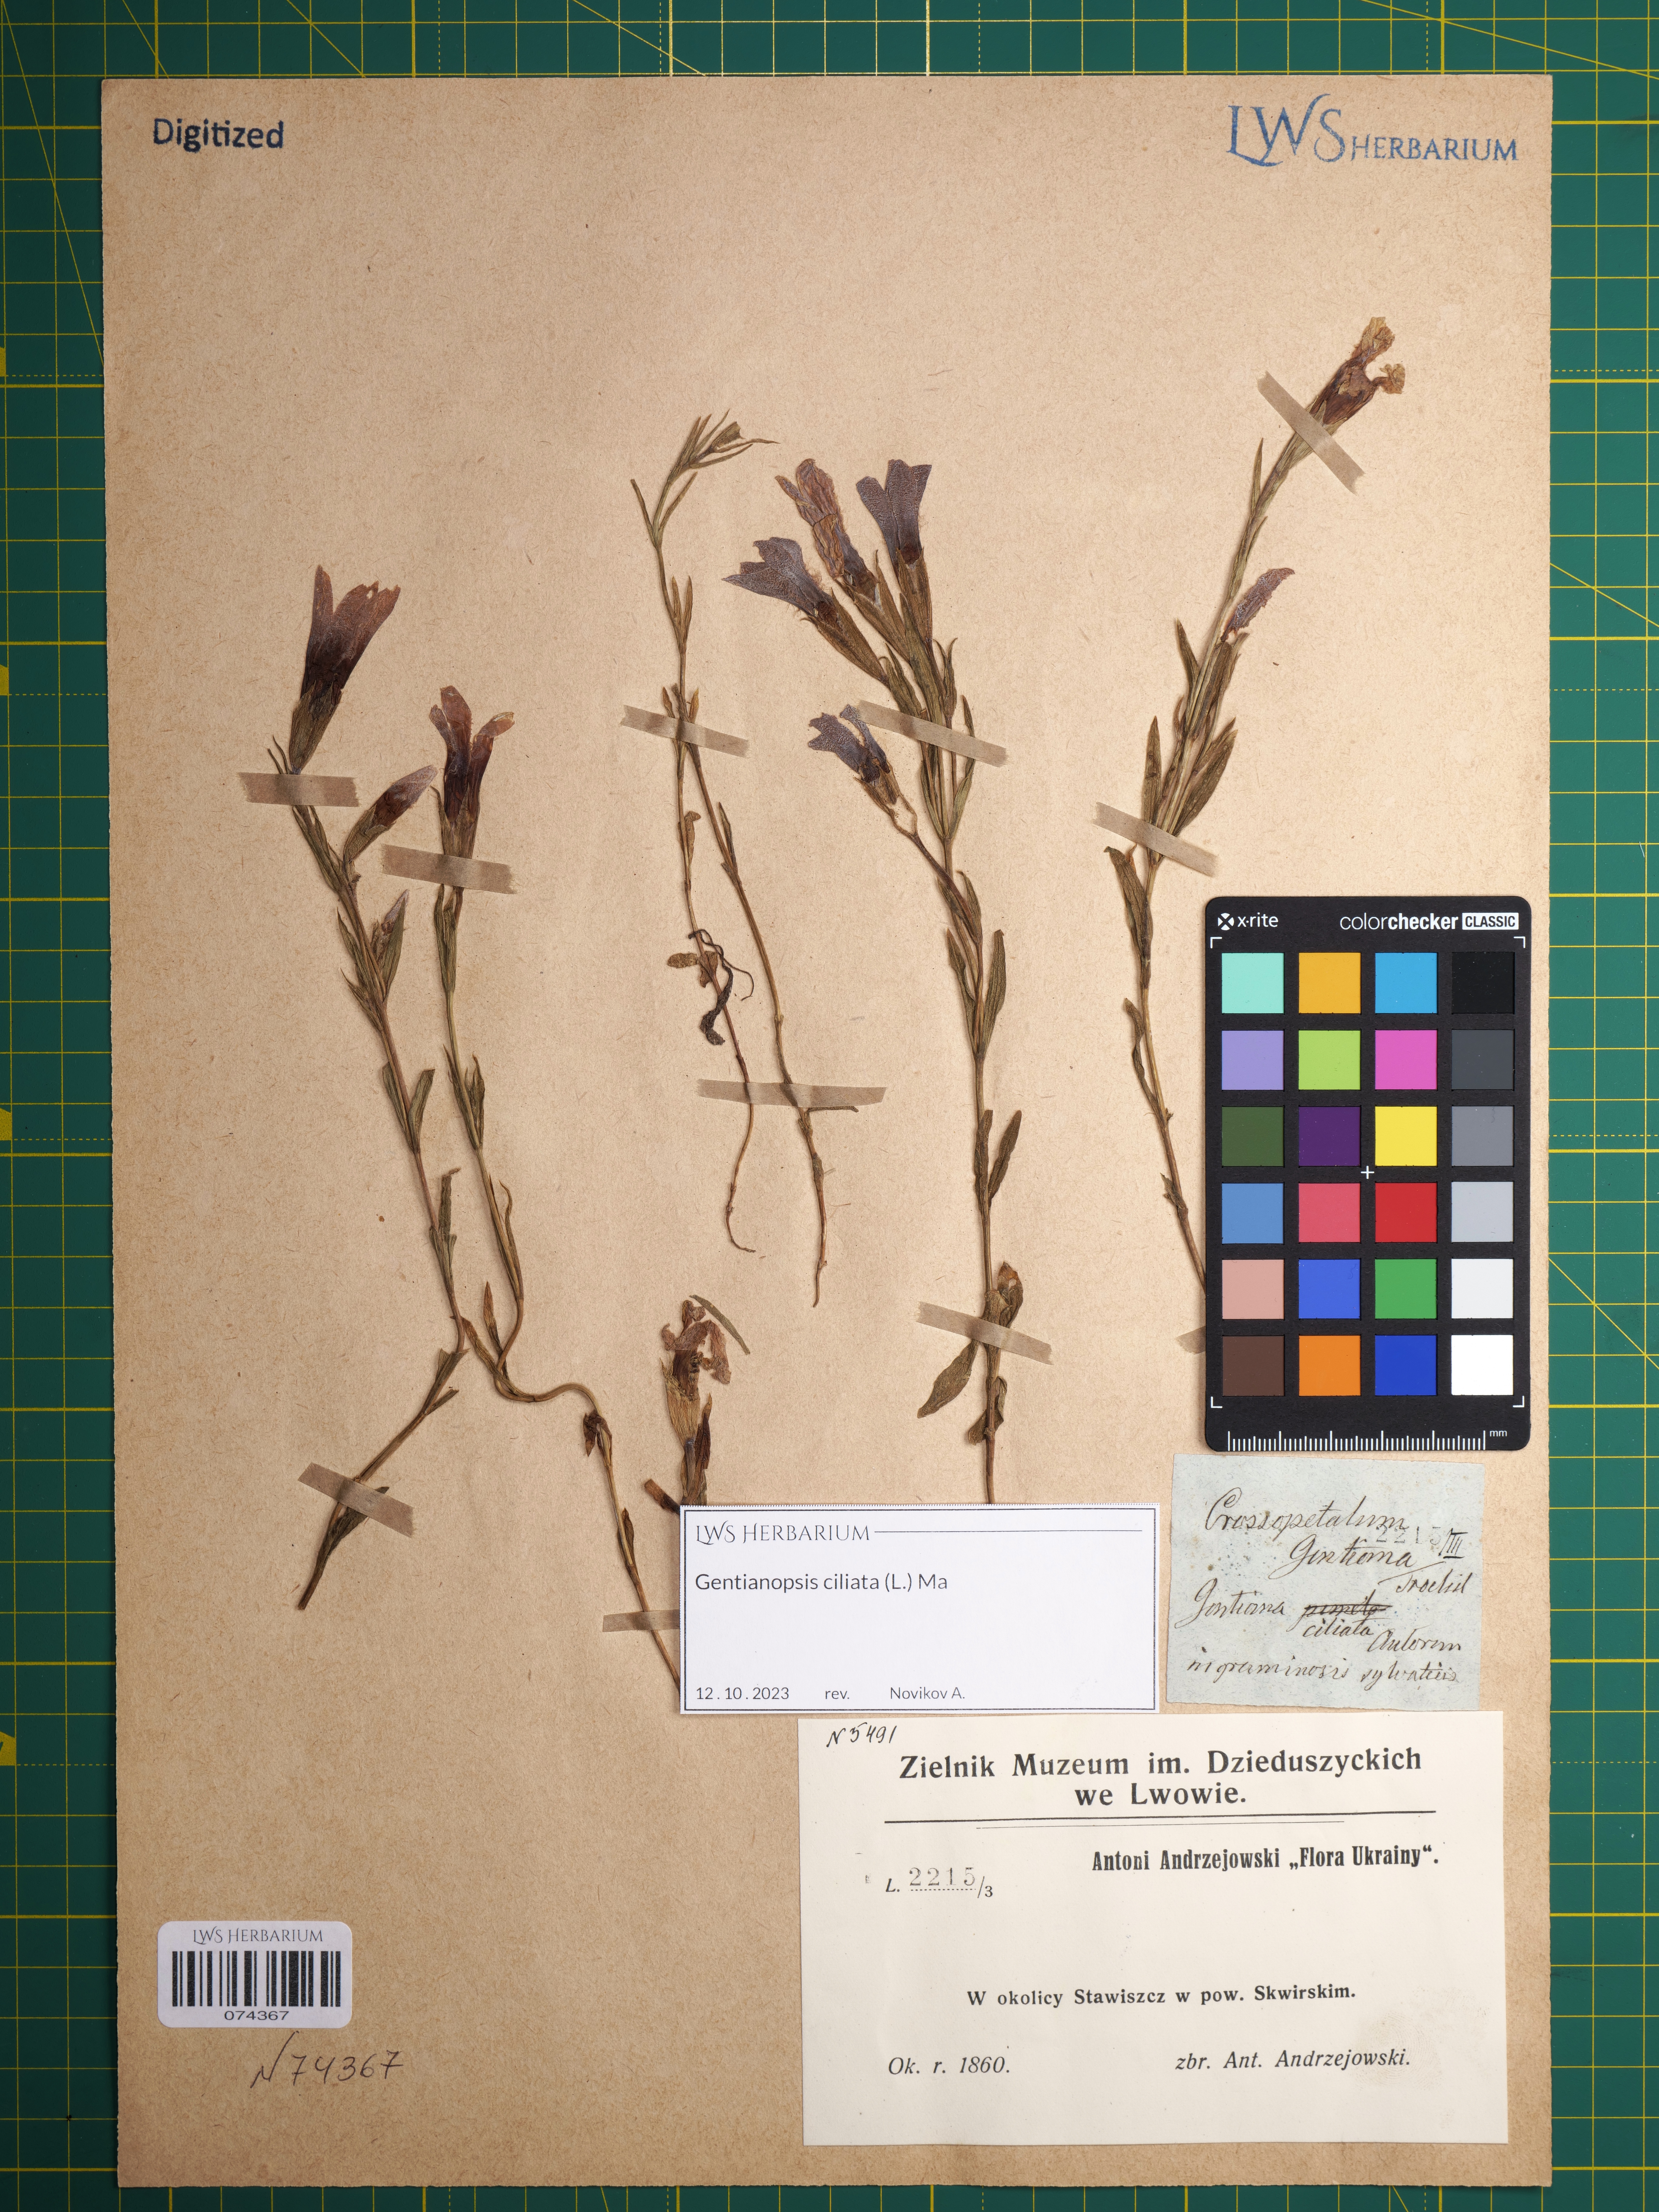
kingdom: Plantae
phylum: Tracheophyta
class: Magnoliopsida
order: Gentianales
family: Gentianaceae
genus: Gentianopsis
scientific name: Gentianopsis ciliata
